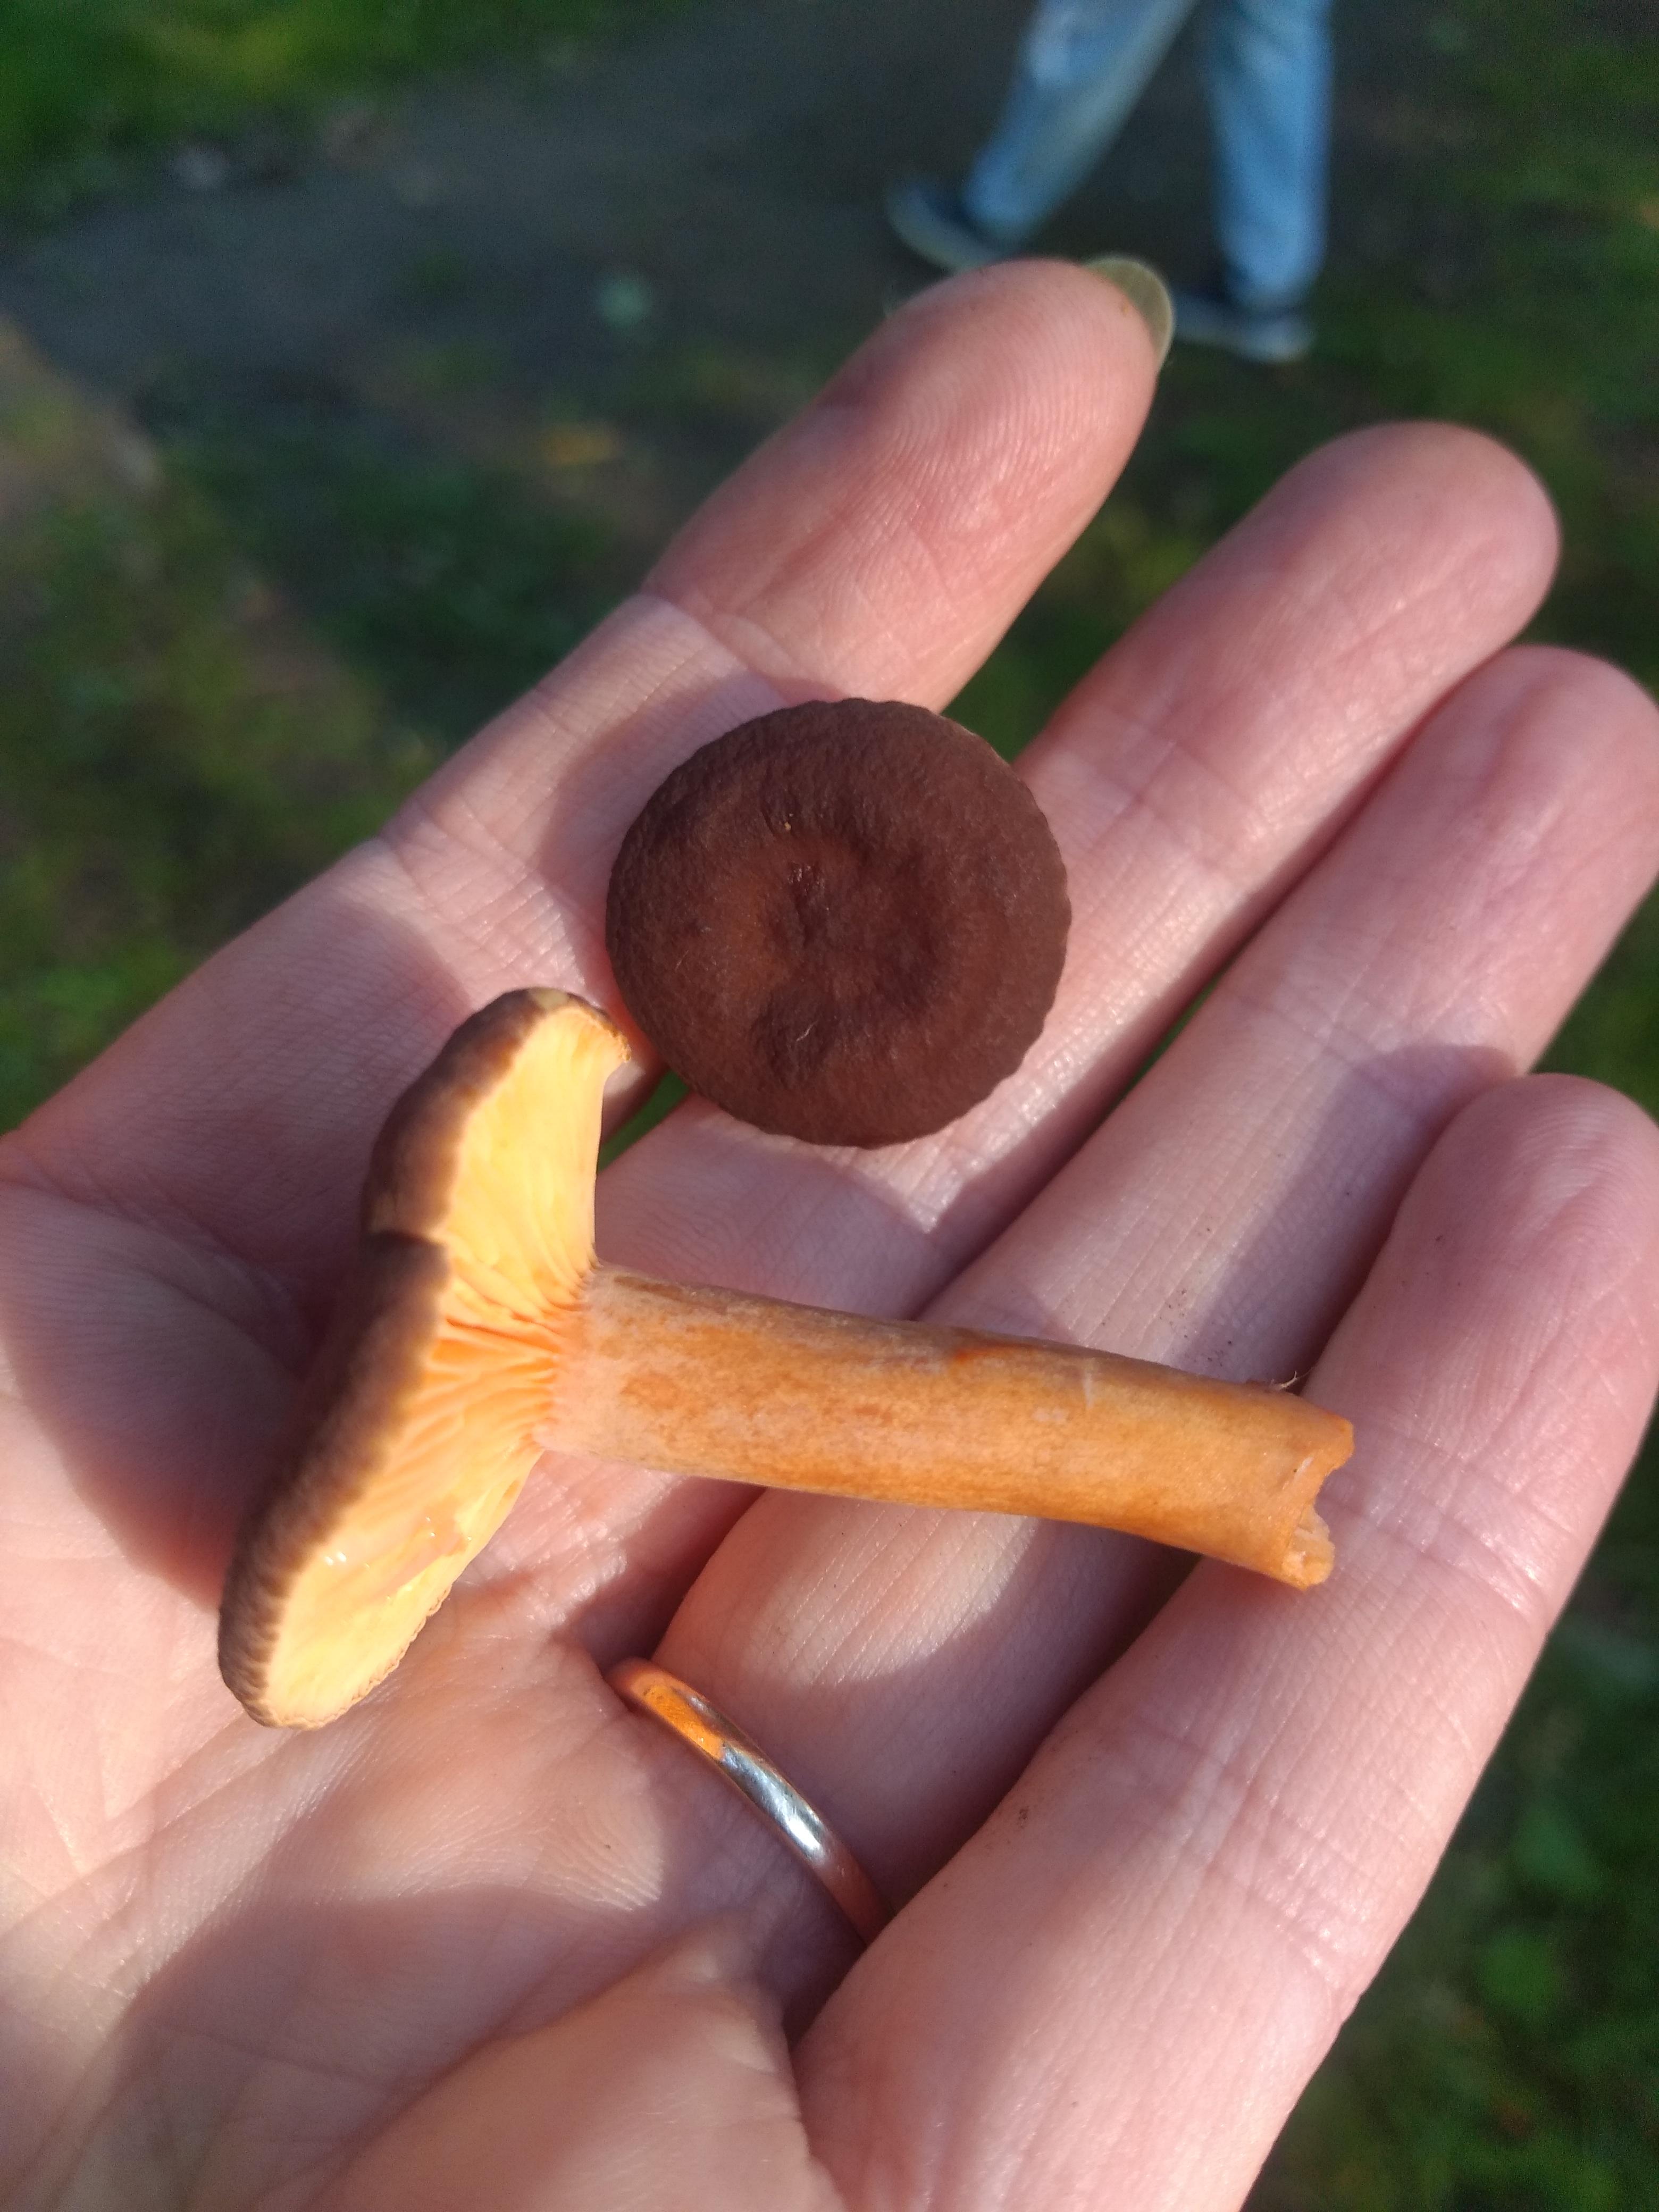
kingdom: Fungi
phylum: Basidiomycota
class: Agaricomycetes
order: Russulales
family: Russulaceae
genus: Lactarius
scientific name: Lactarius serifluus
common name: tæge-mælkehat
